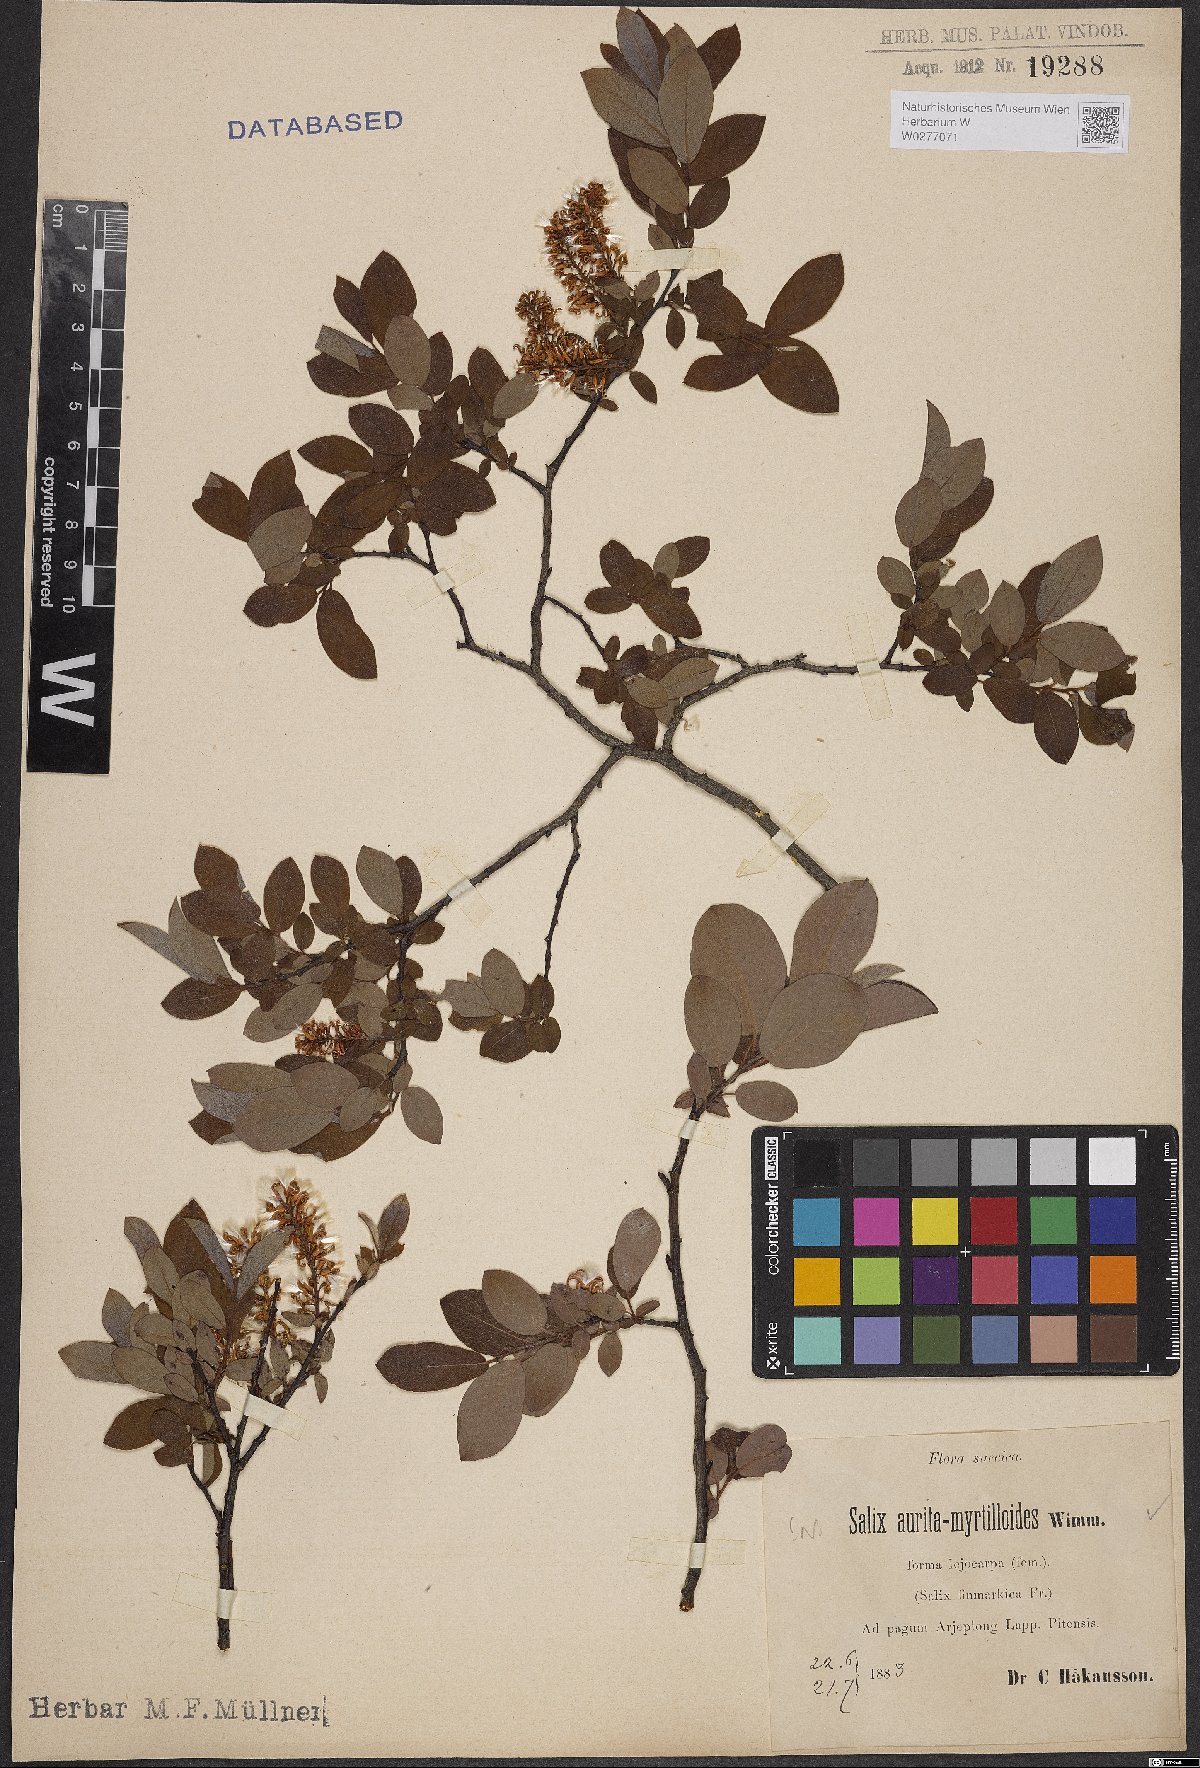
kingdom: Plantae
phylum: Tracheophyta
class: Magnoliopsida
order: Malpighiales
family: Salicaceae
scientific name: Salicaceae
